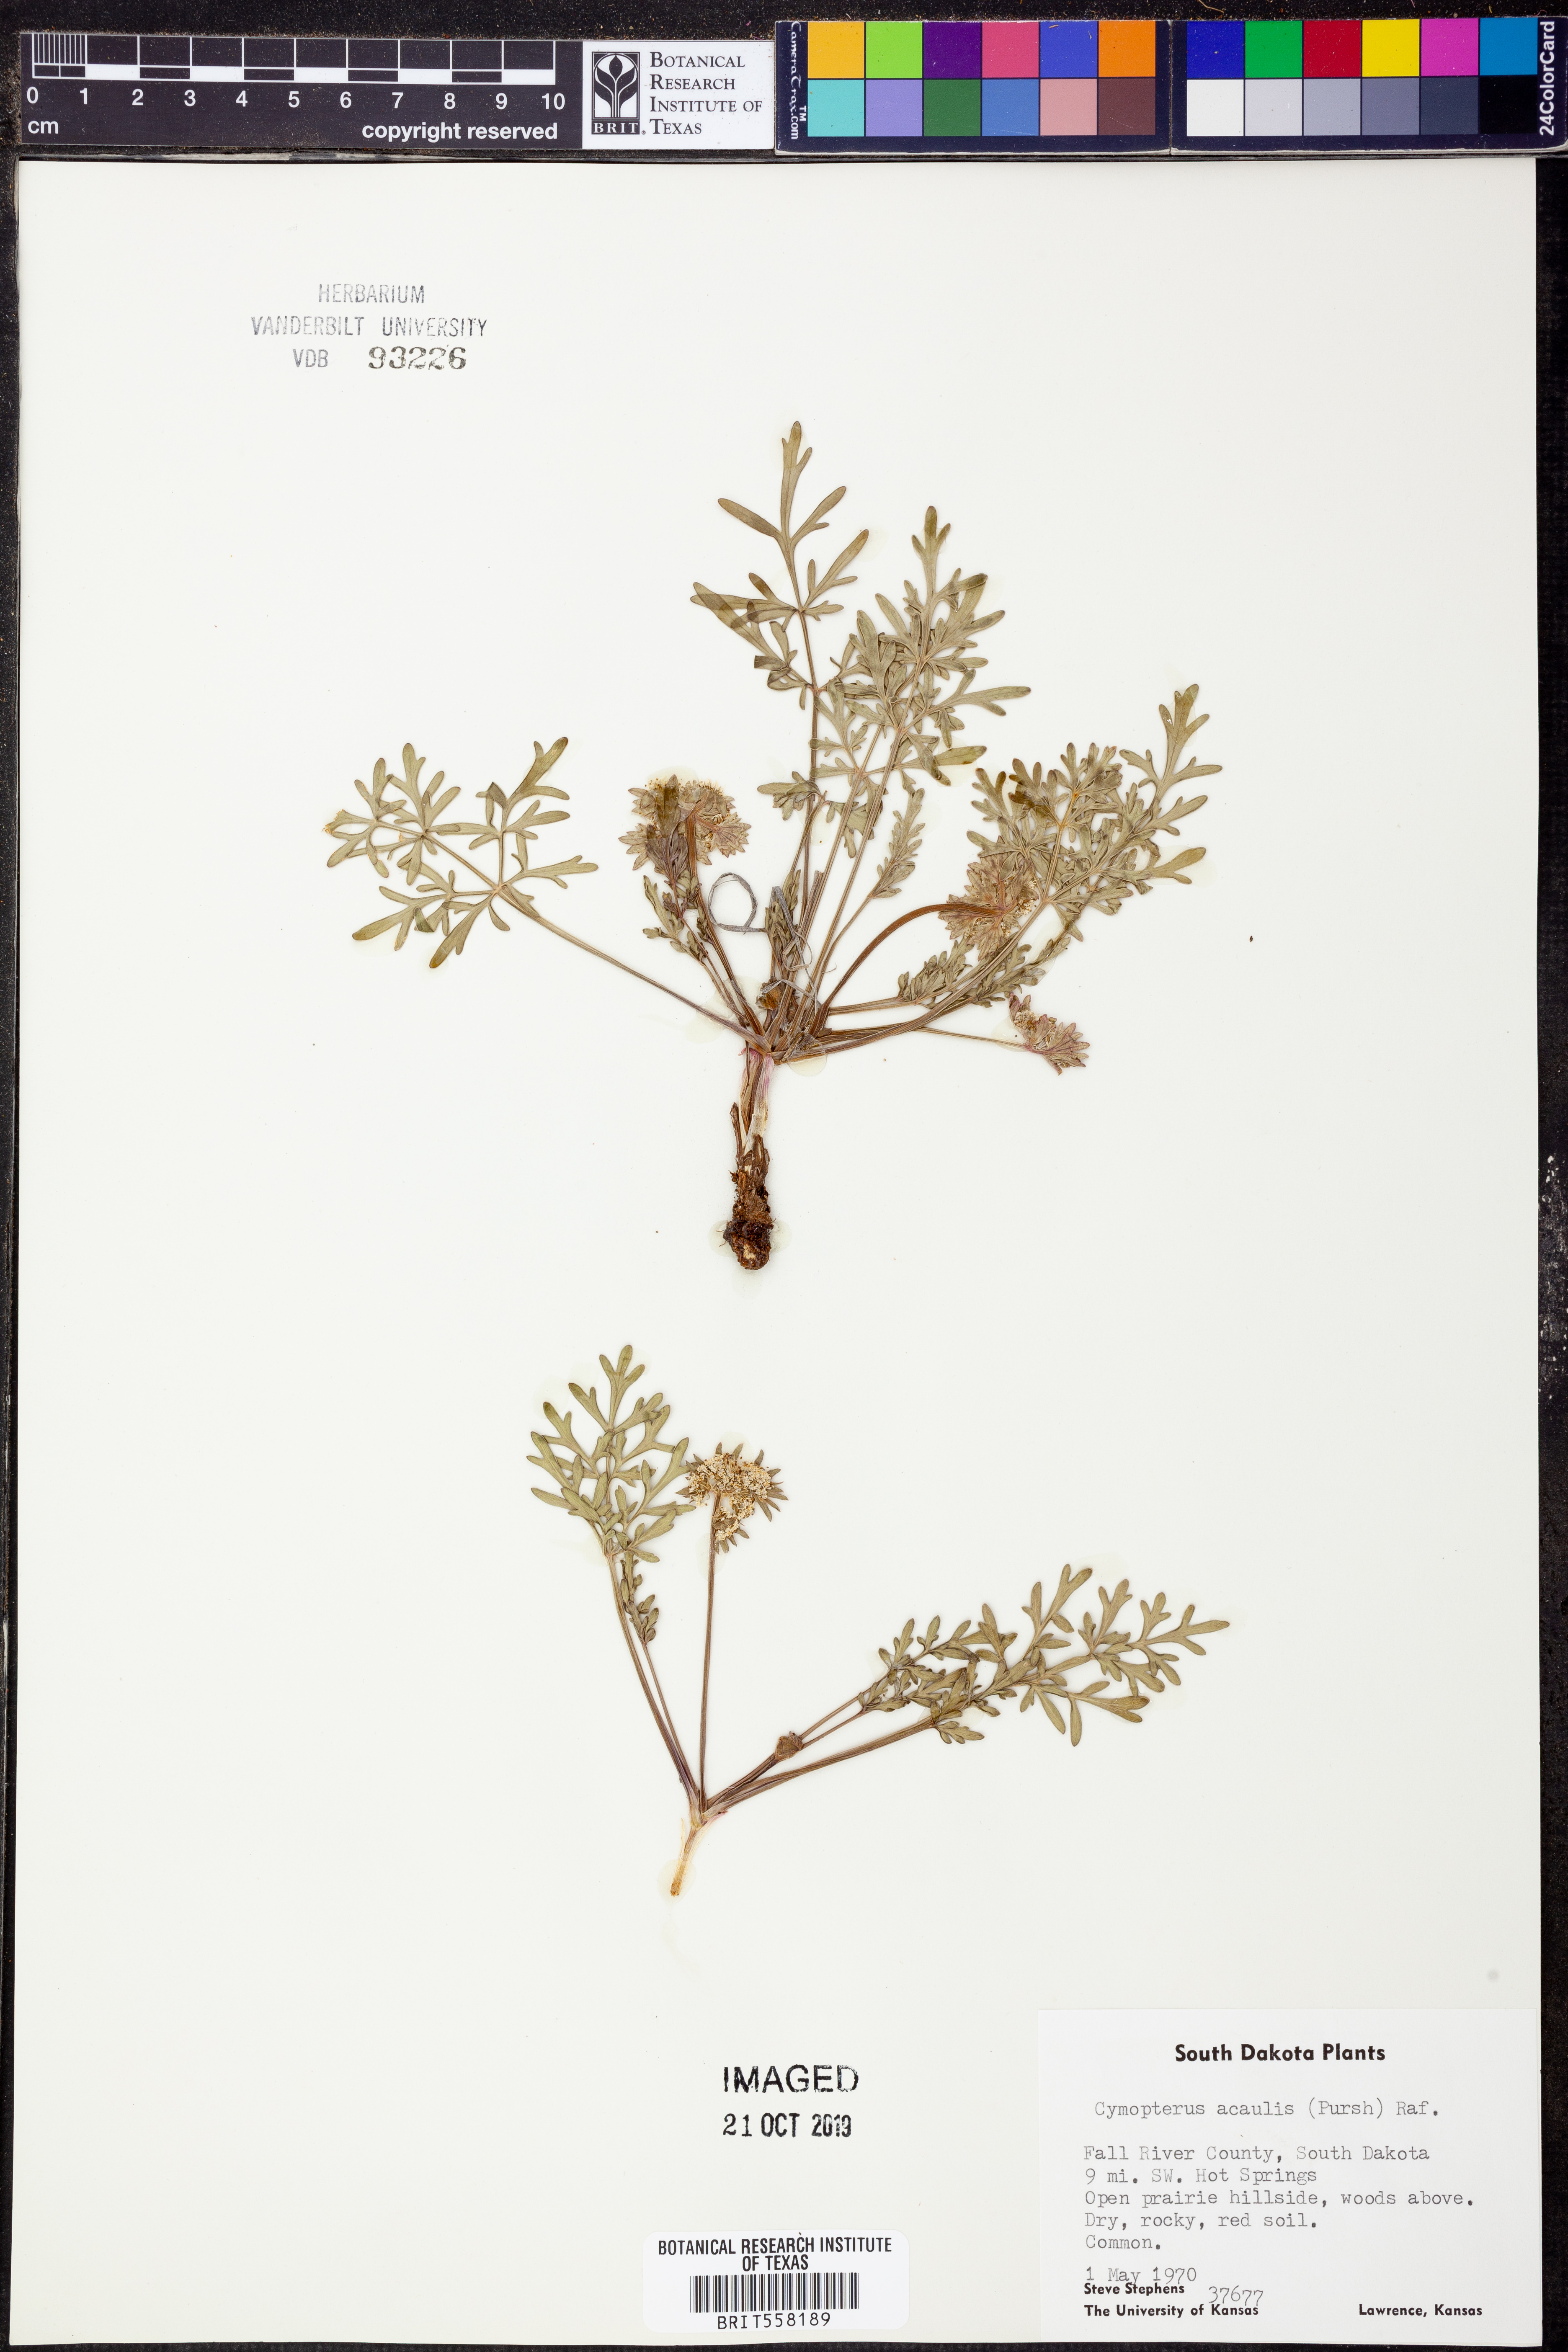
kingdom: Plantae
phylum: Tracheophyta
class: Magnoliopsida
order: Apiales
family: Apiaceae
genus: Cymopterus
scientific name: Cymopterus glomeratus
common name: Plains spring parsley
